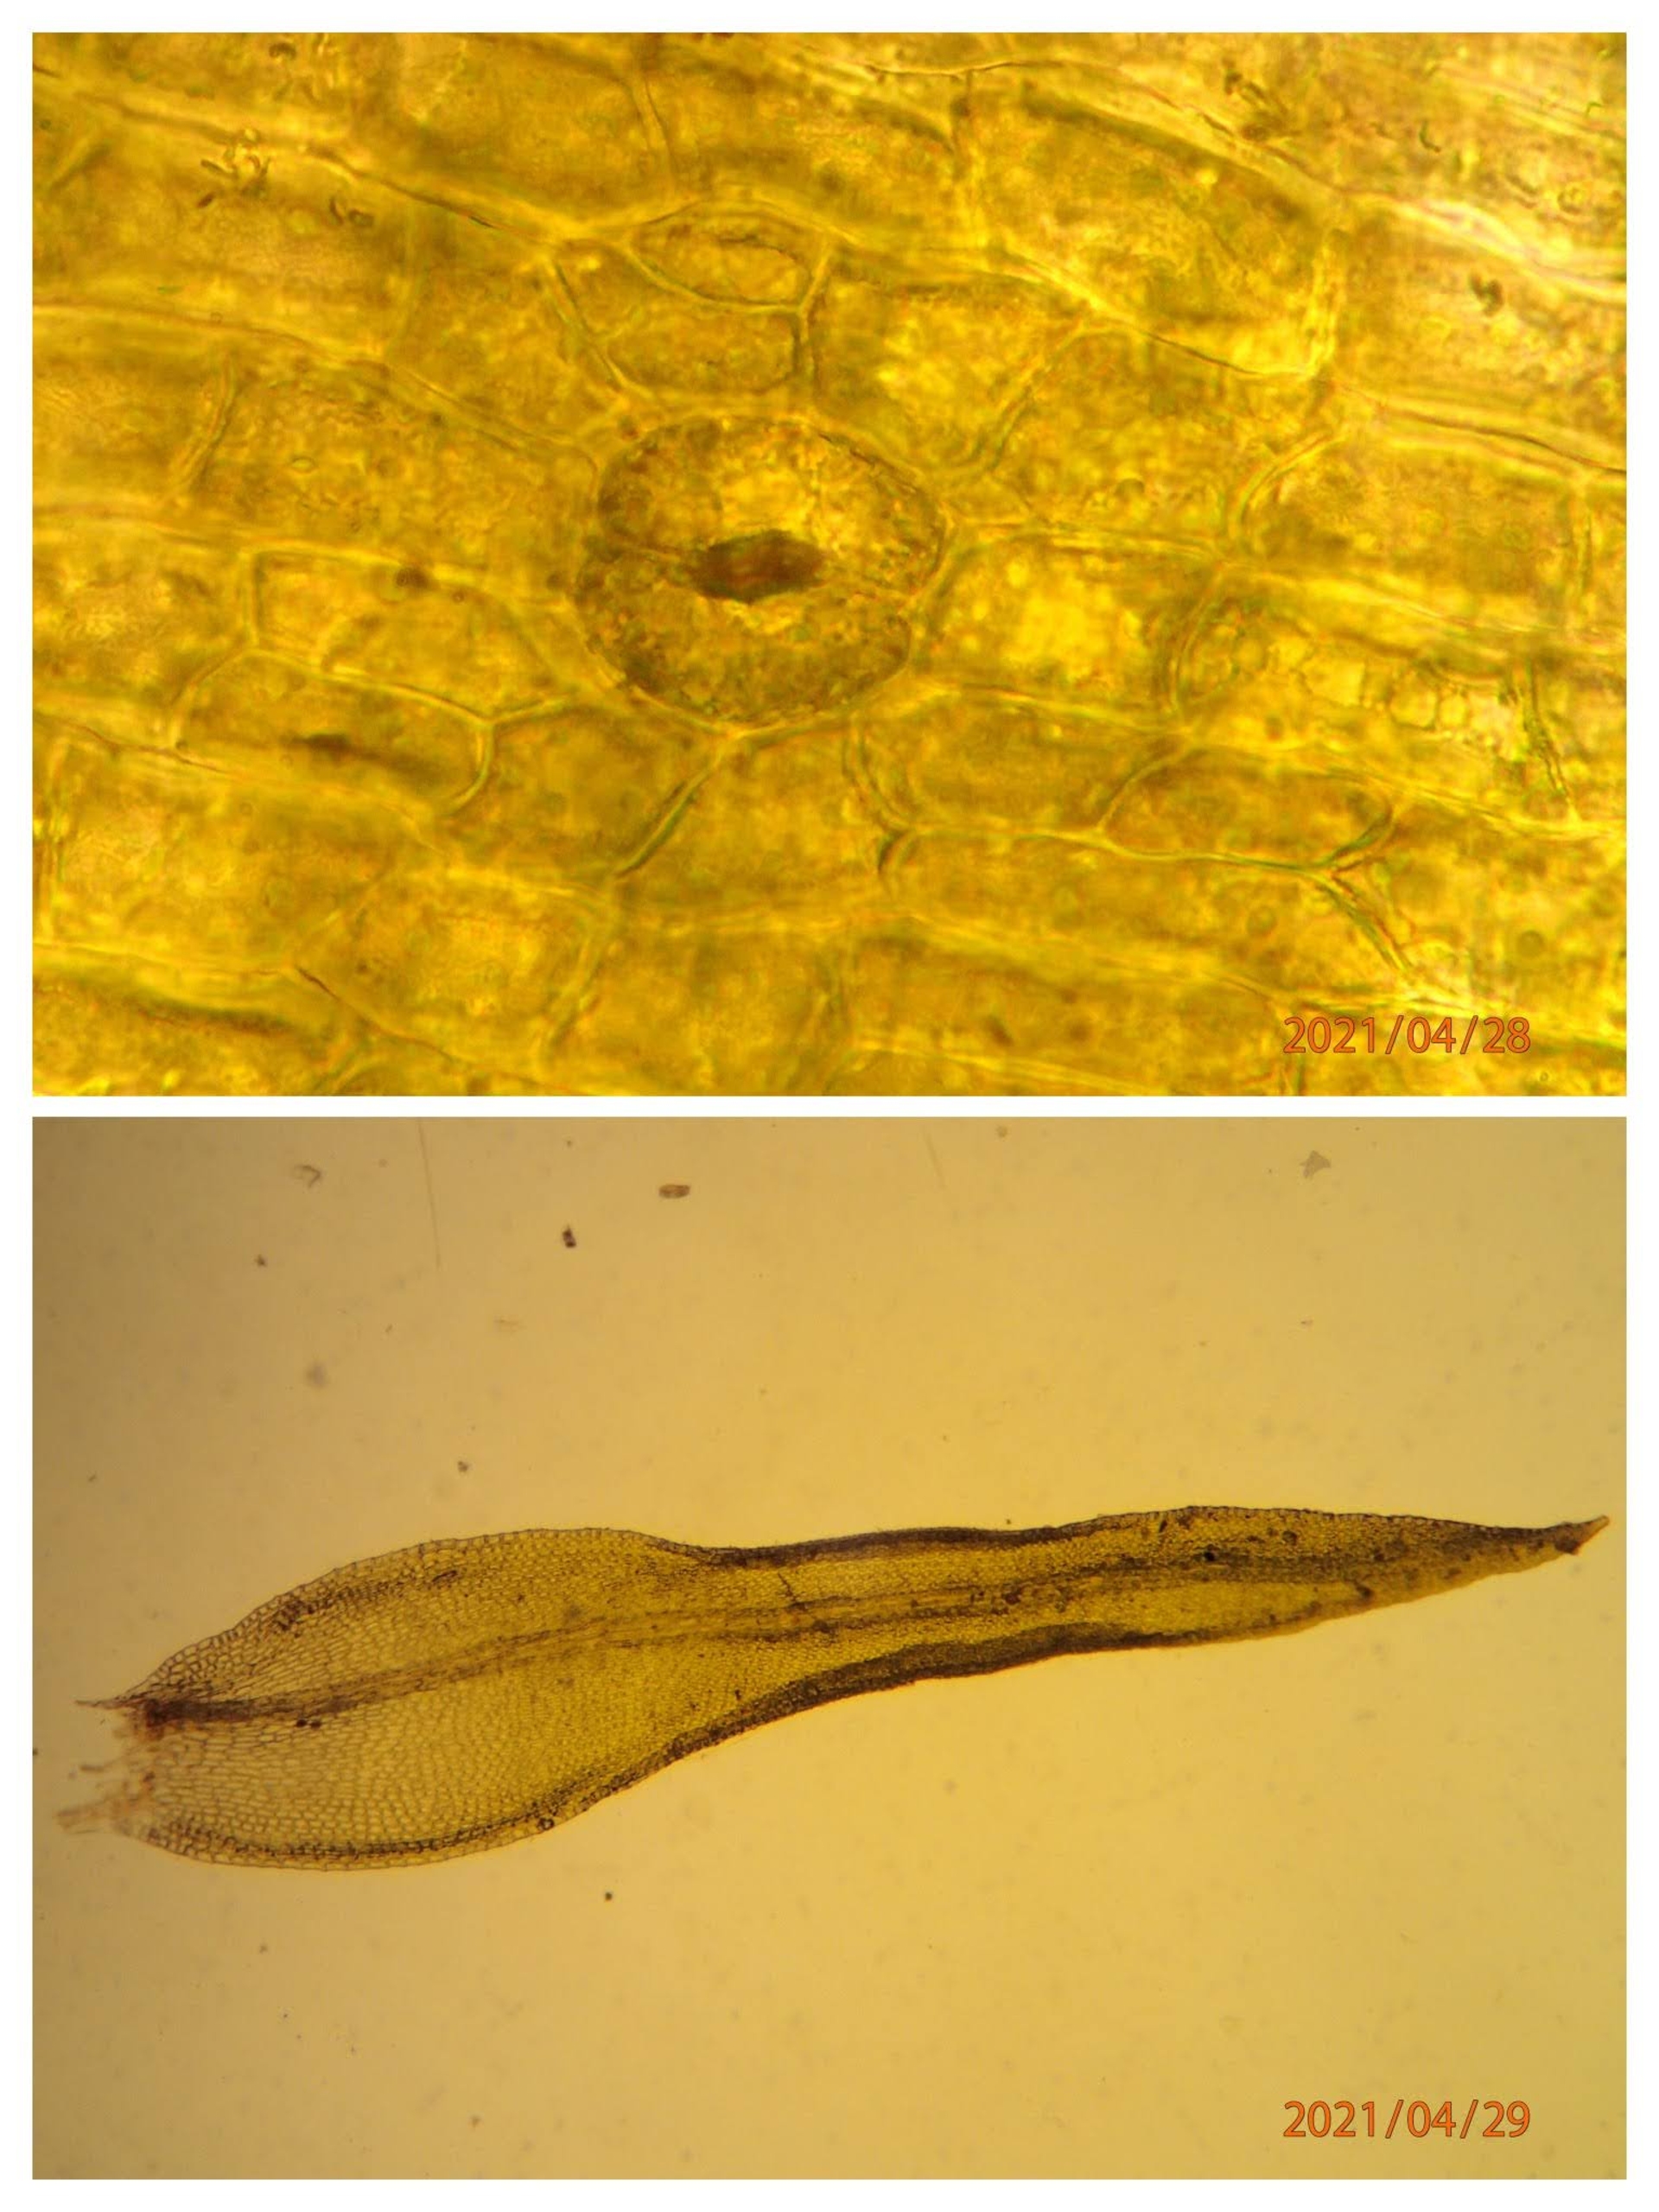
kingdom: Plantae
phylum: Bryophyta
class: Bryopsida
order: Orthotrichales
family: Orthotrichaceae
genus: Lewinskya
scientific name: Lewinskya speciosa
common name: Kortstribet furehætte
